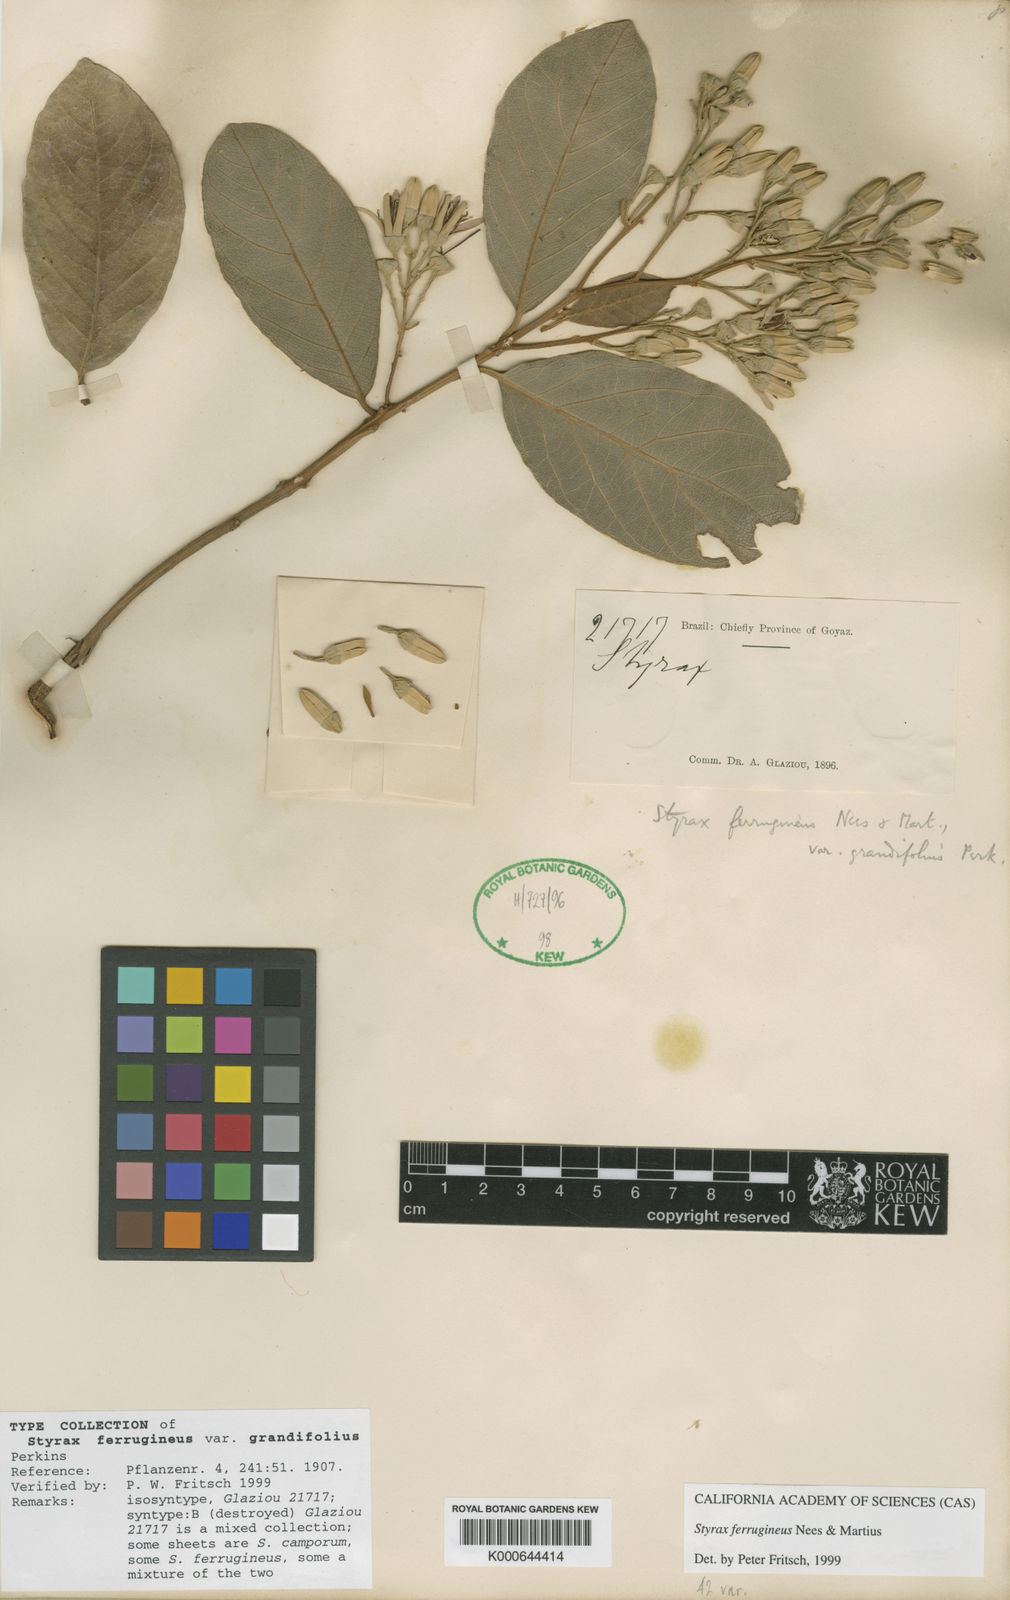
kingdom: Plantae
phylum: Tracheophyta
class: Magnoliopsida
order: Ericales
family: Styracaceae
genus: Styrax
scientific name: Styrax ferrugineus
